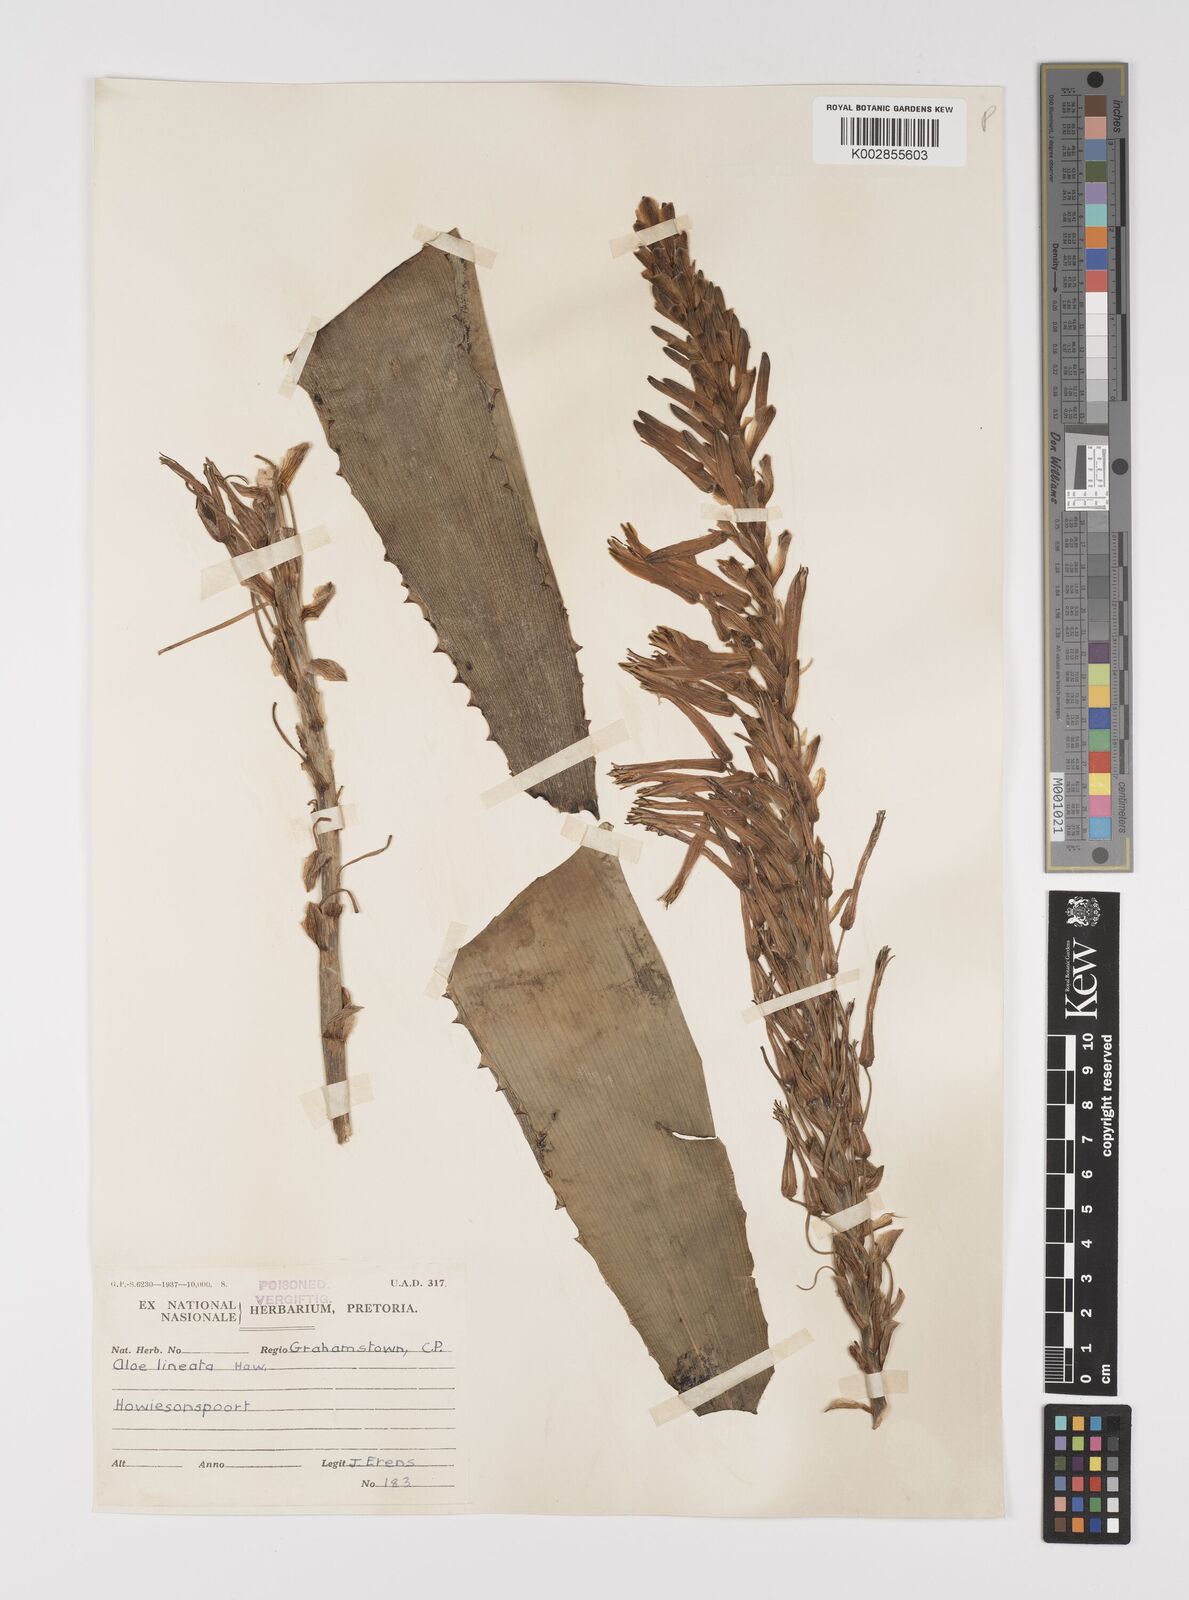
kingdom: Plantae
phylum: Tracheophyta
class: Liliopsida
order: Asparagales
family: Asphodelaceae
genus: Aloe
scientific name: Aloe lineata
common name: Lined red-spined aloe
